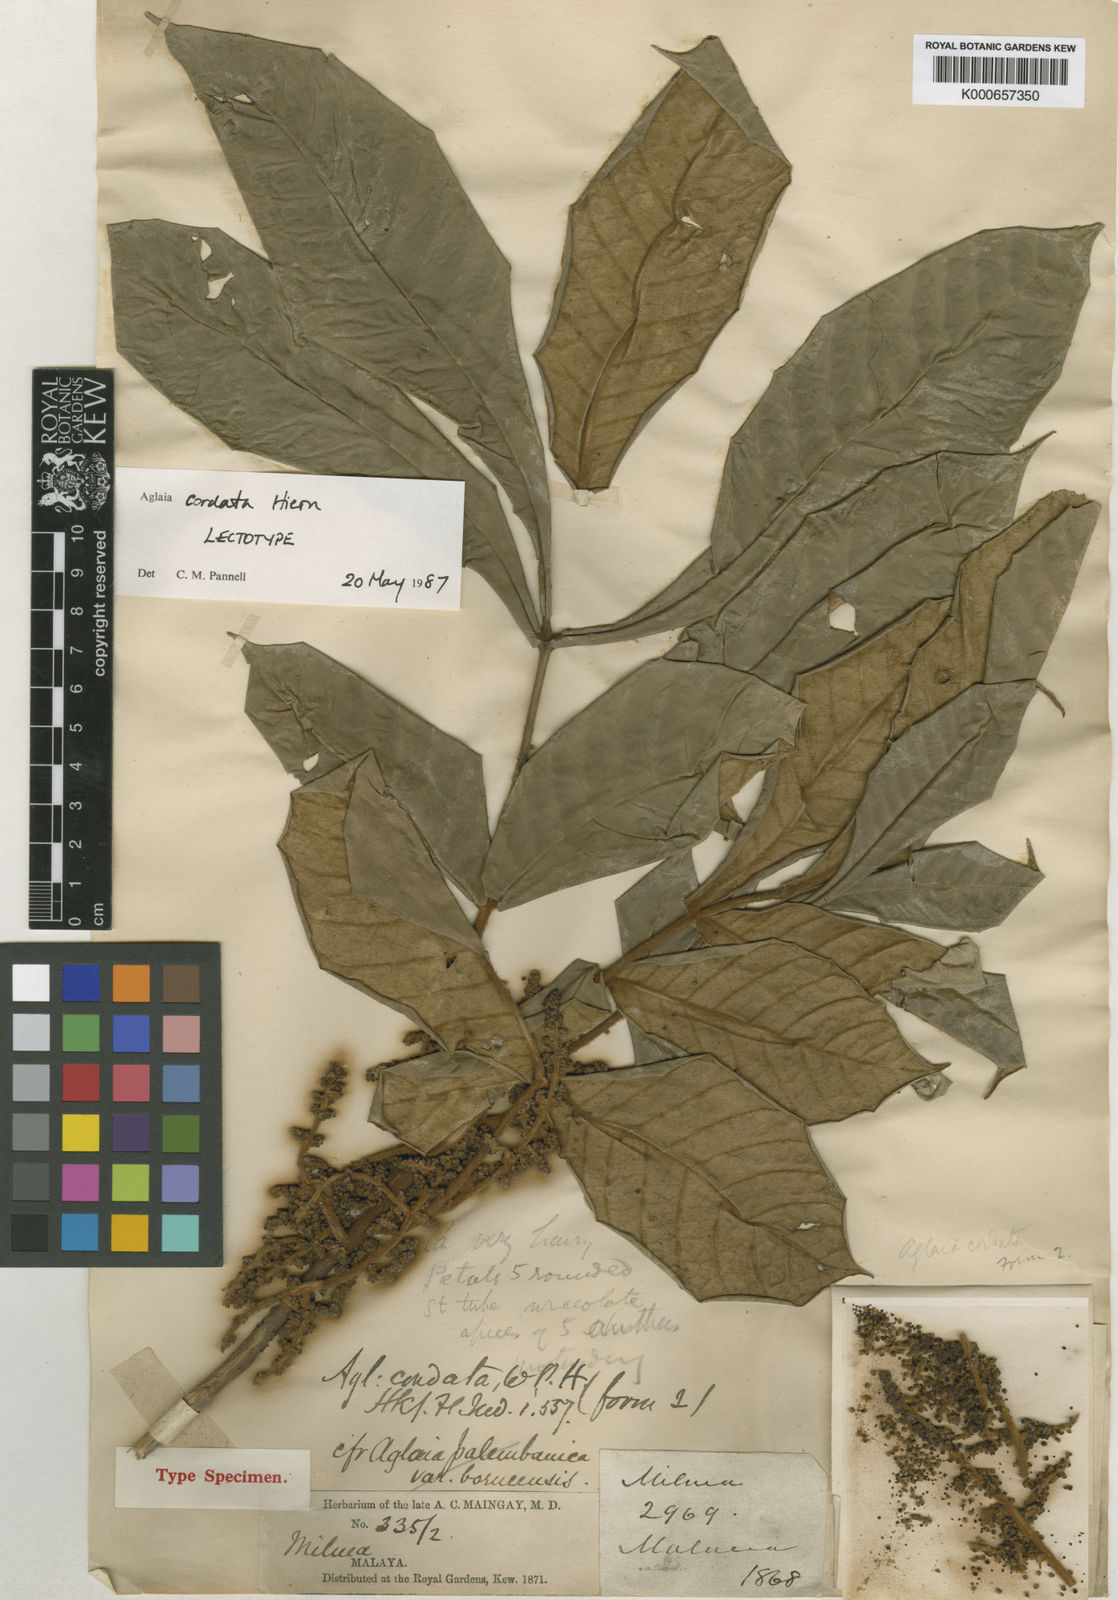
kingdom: Plantae
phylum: Tracheophyta
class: Magnoliopsida
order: Sapindales
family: Meliaceae
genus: Aglaia
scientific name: Aglaia tomentosa
